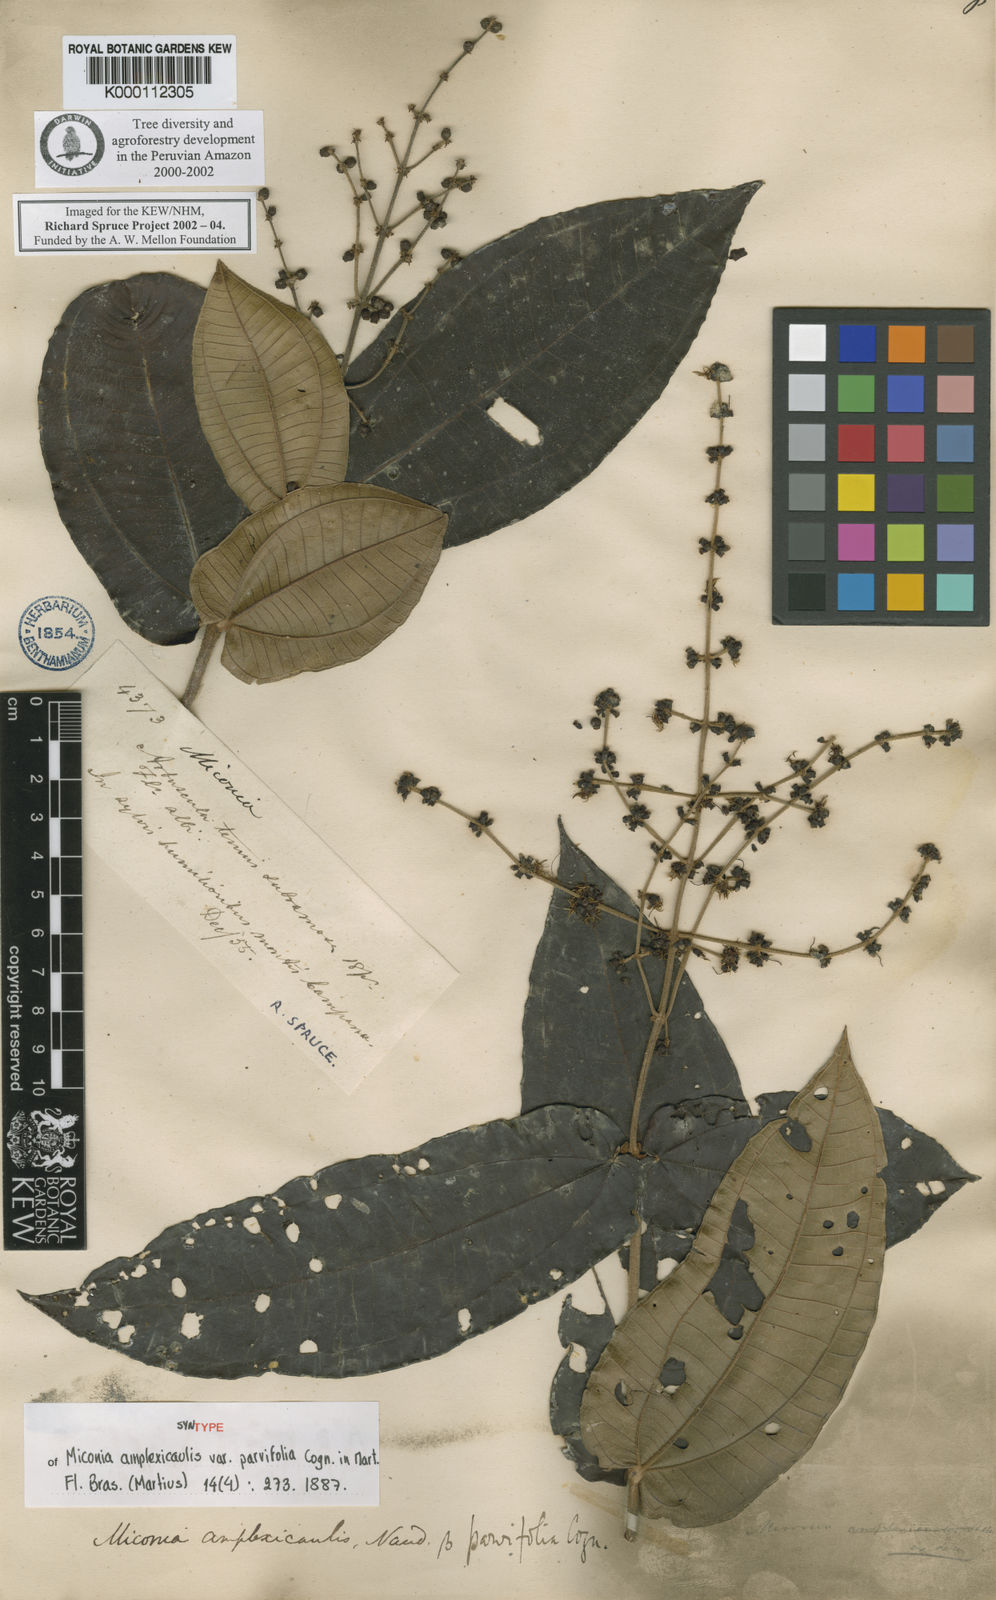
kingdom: Plantae
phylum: Tracheophyta
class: Magnoliopsida
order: Myrtales
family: Melastomataceae
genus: Miconia
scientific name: Miconia amplexicaulis
